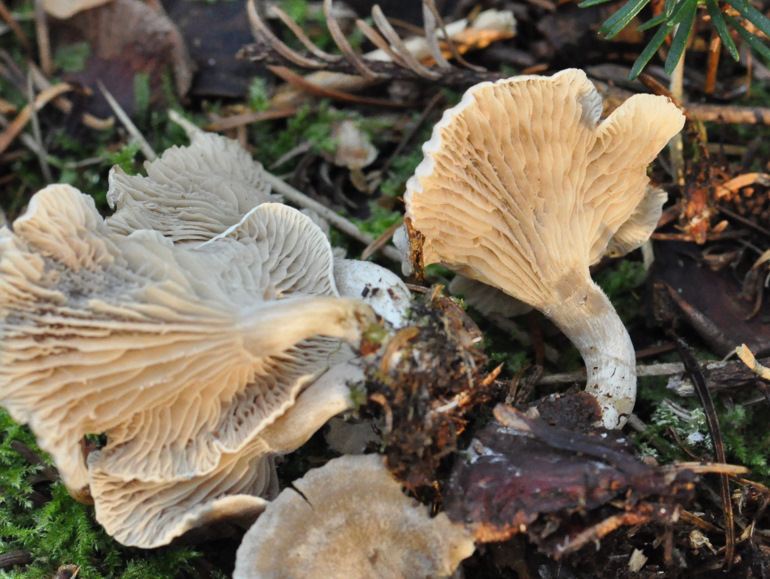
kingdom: Fungi
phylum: Basidiomycota
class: Agaricomycetes
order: Agaricales
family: Pseudoclitocybaceae
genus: Musumecia
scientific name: Musumecia vermicularis
